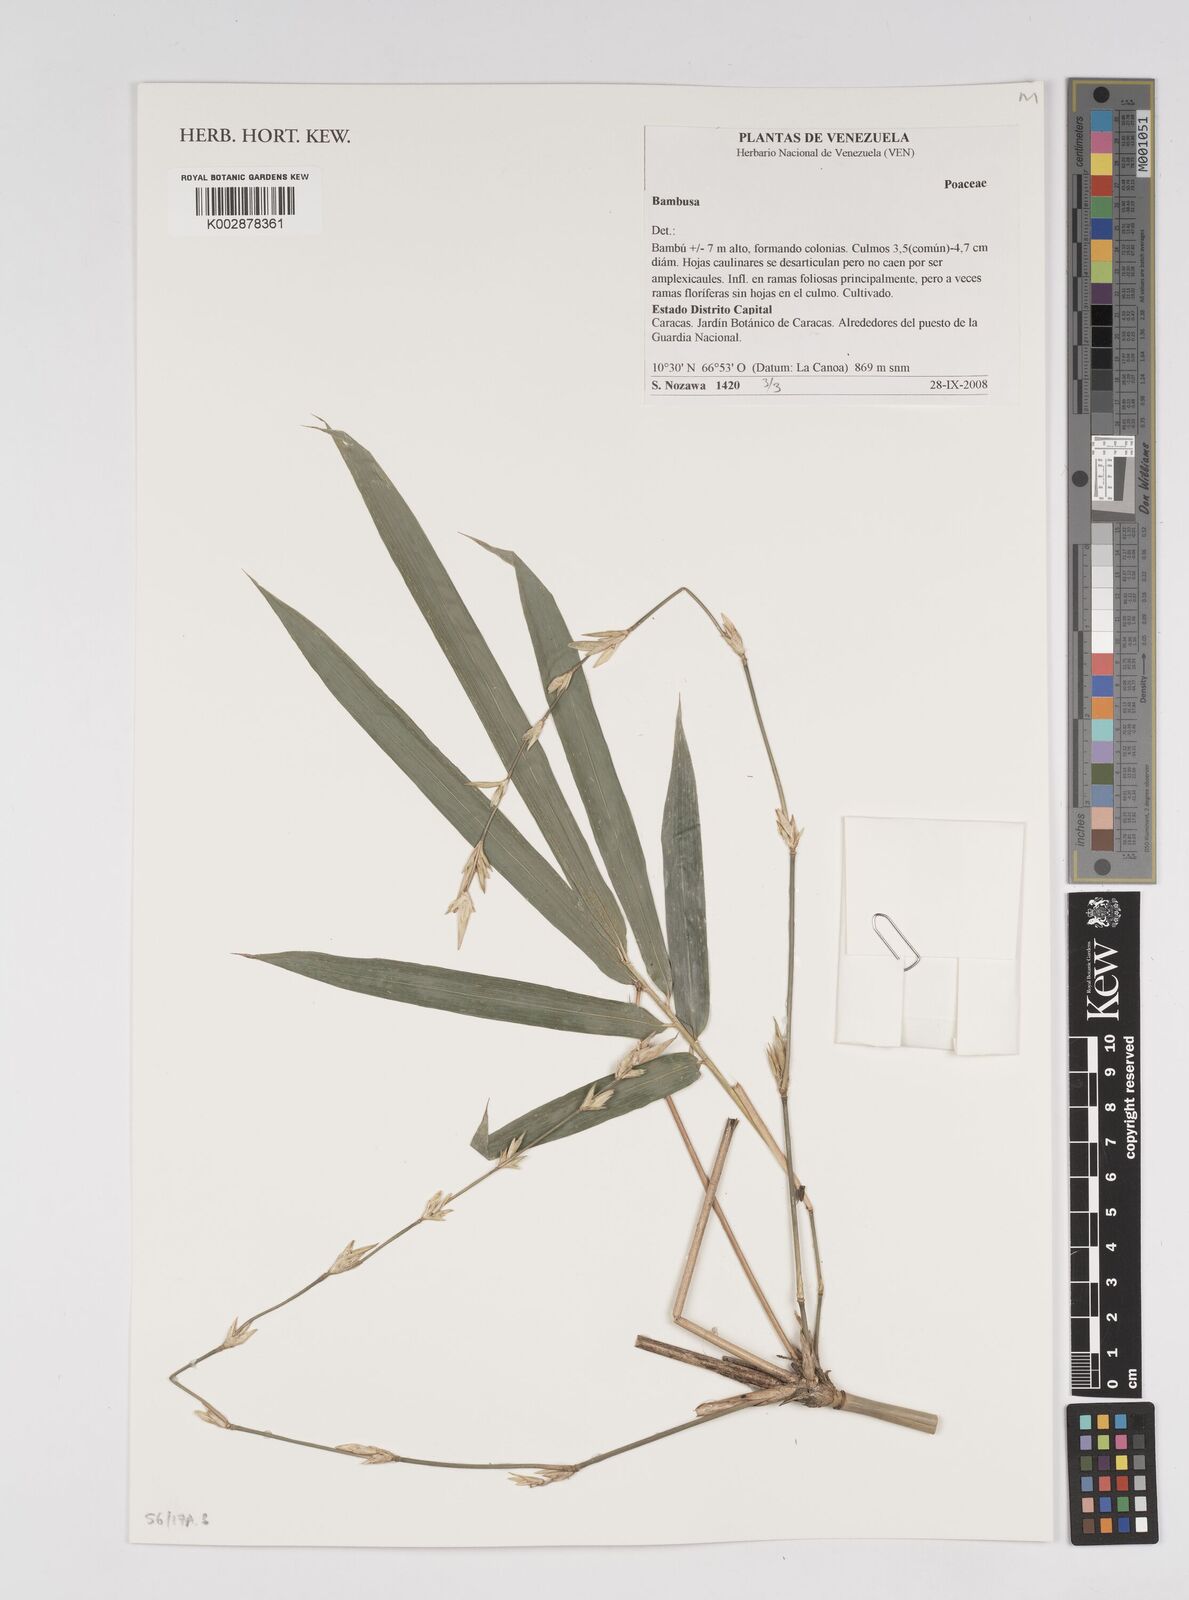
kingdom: Plantae
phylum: Tracheophyta
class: Liliopsida
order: Poales
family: Poaceae
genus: Bambusa
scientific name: Bambusa
